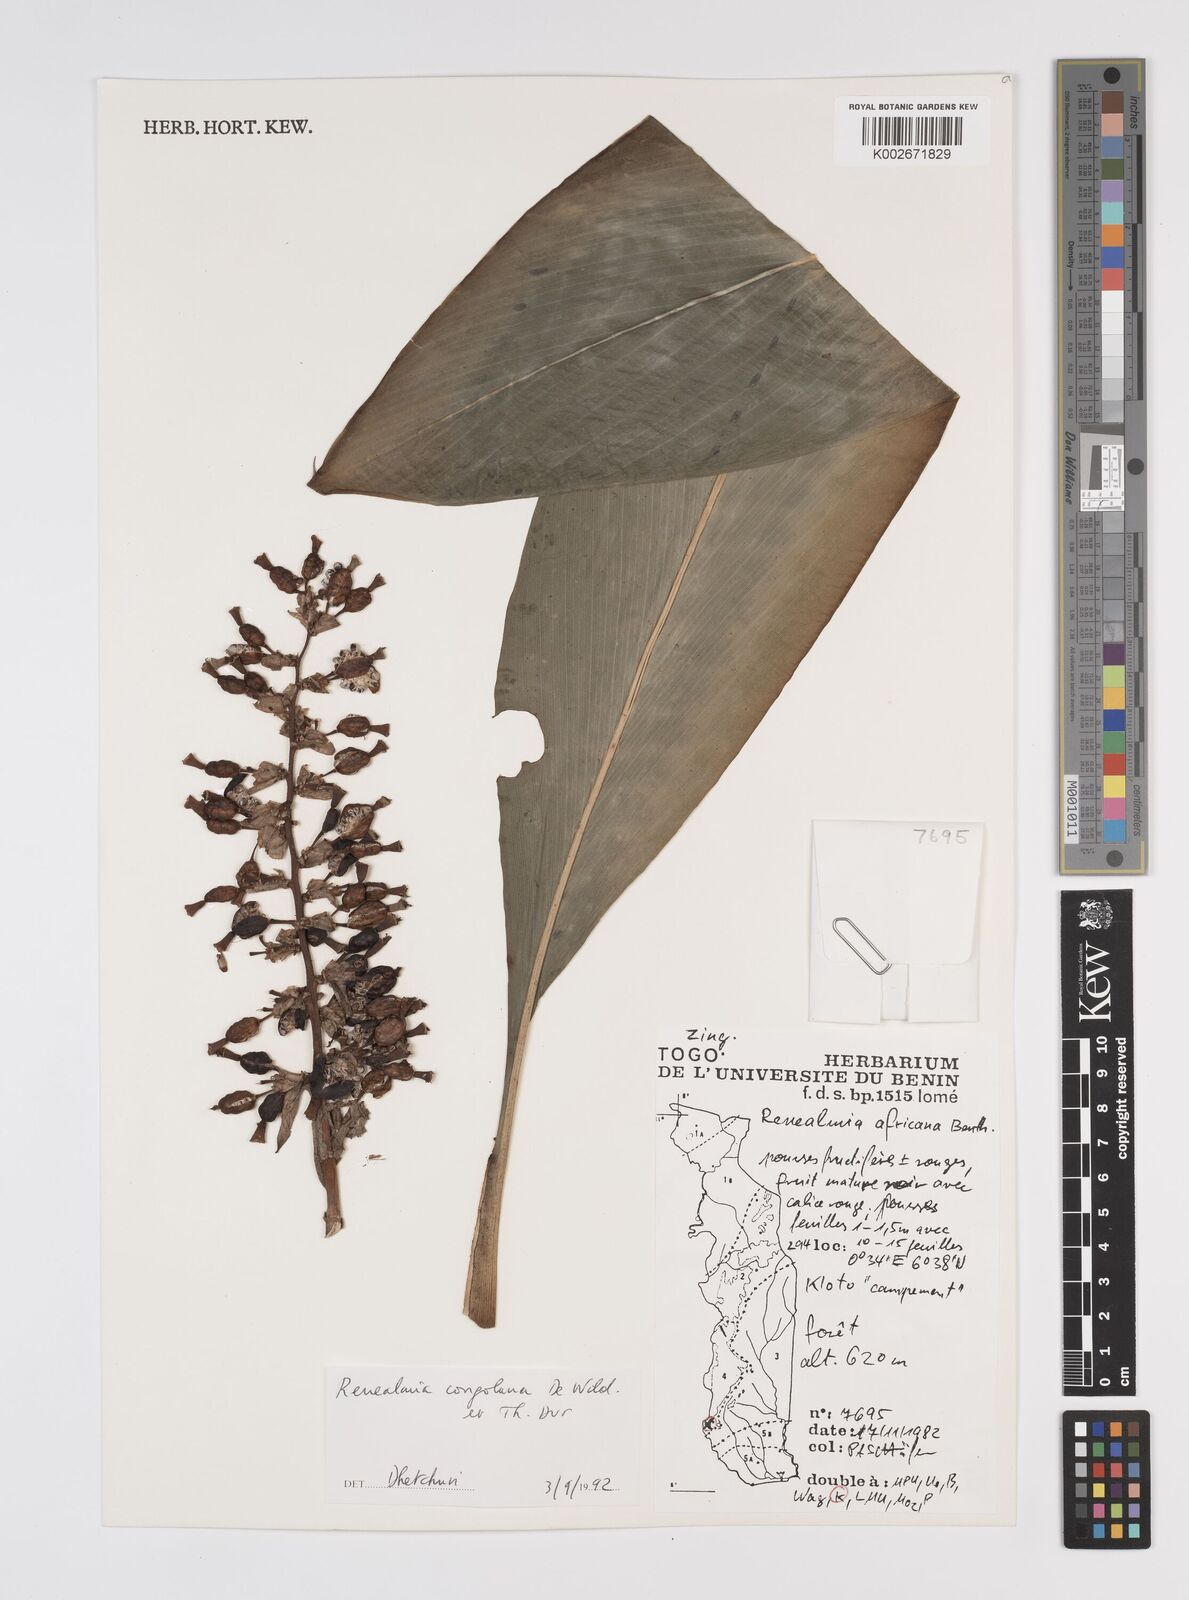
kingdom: Plantae
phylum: Tracheophyta
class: Liliopsida
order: Zingiberales
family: Zingiberaceae
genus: Renealmia
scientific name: Renealmia africana
